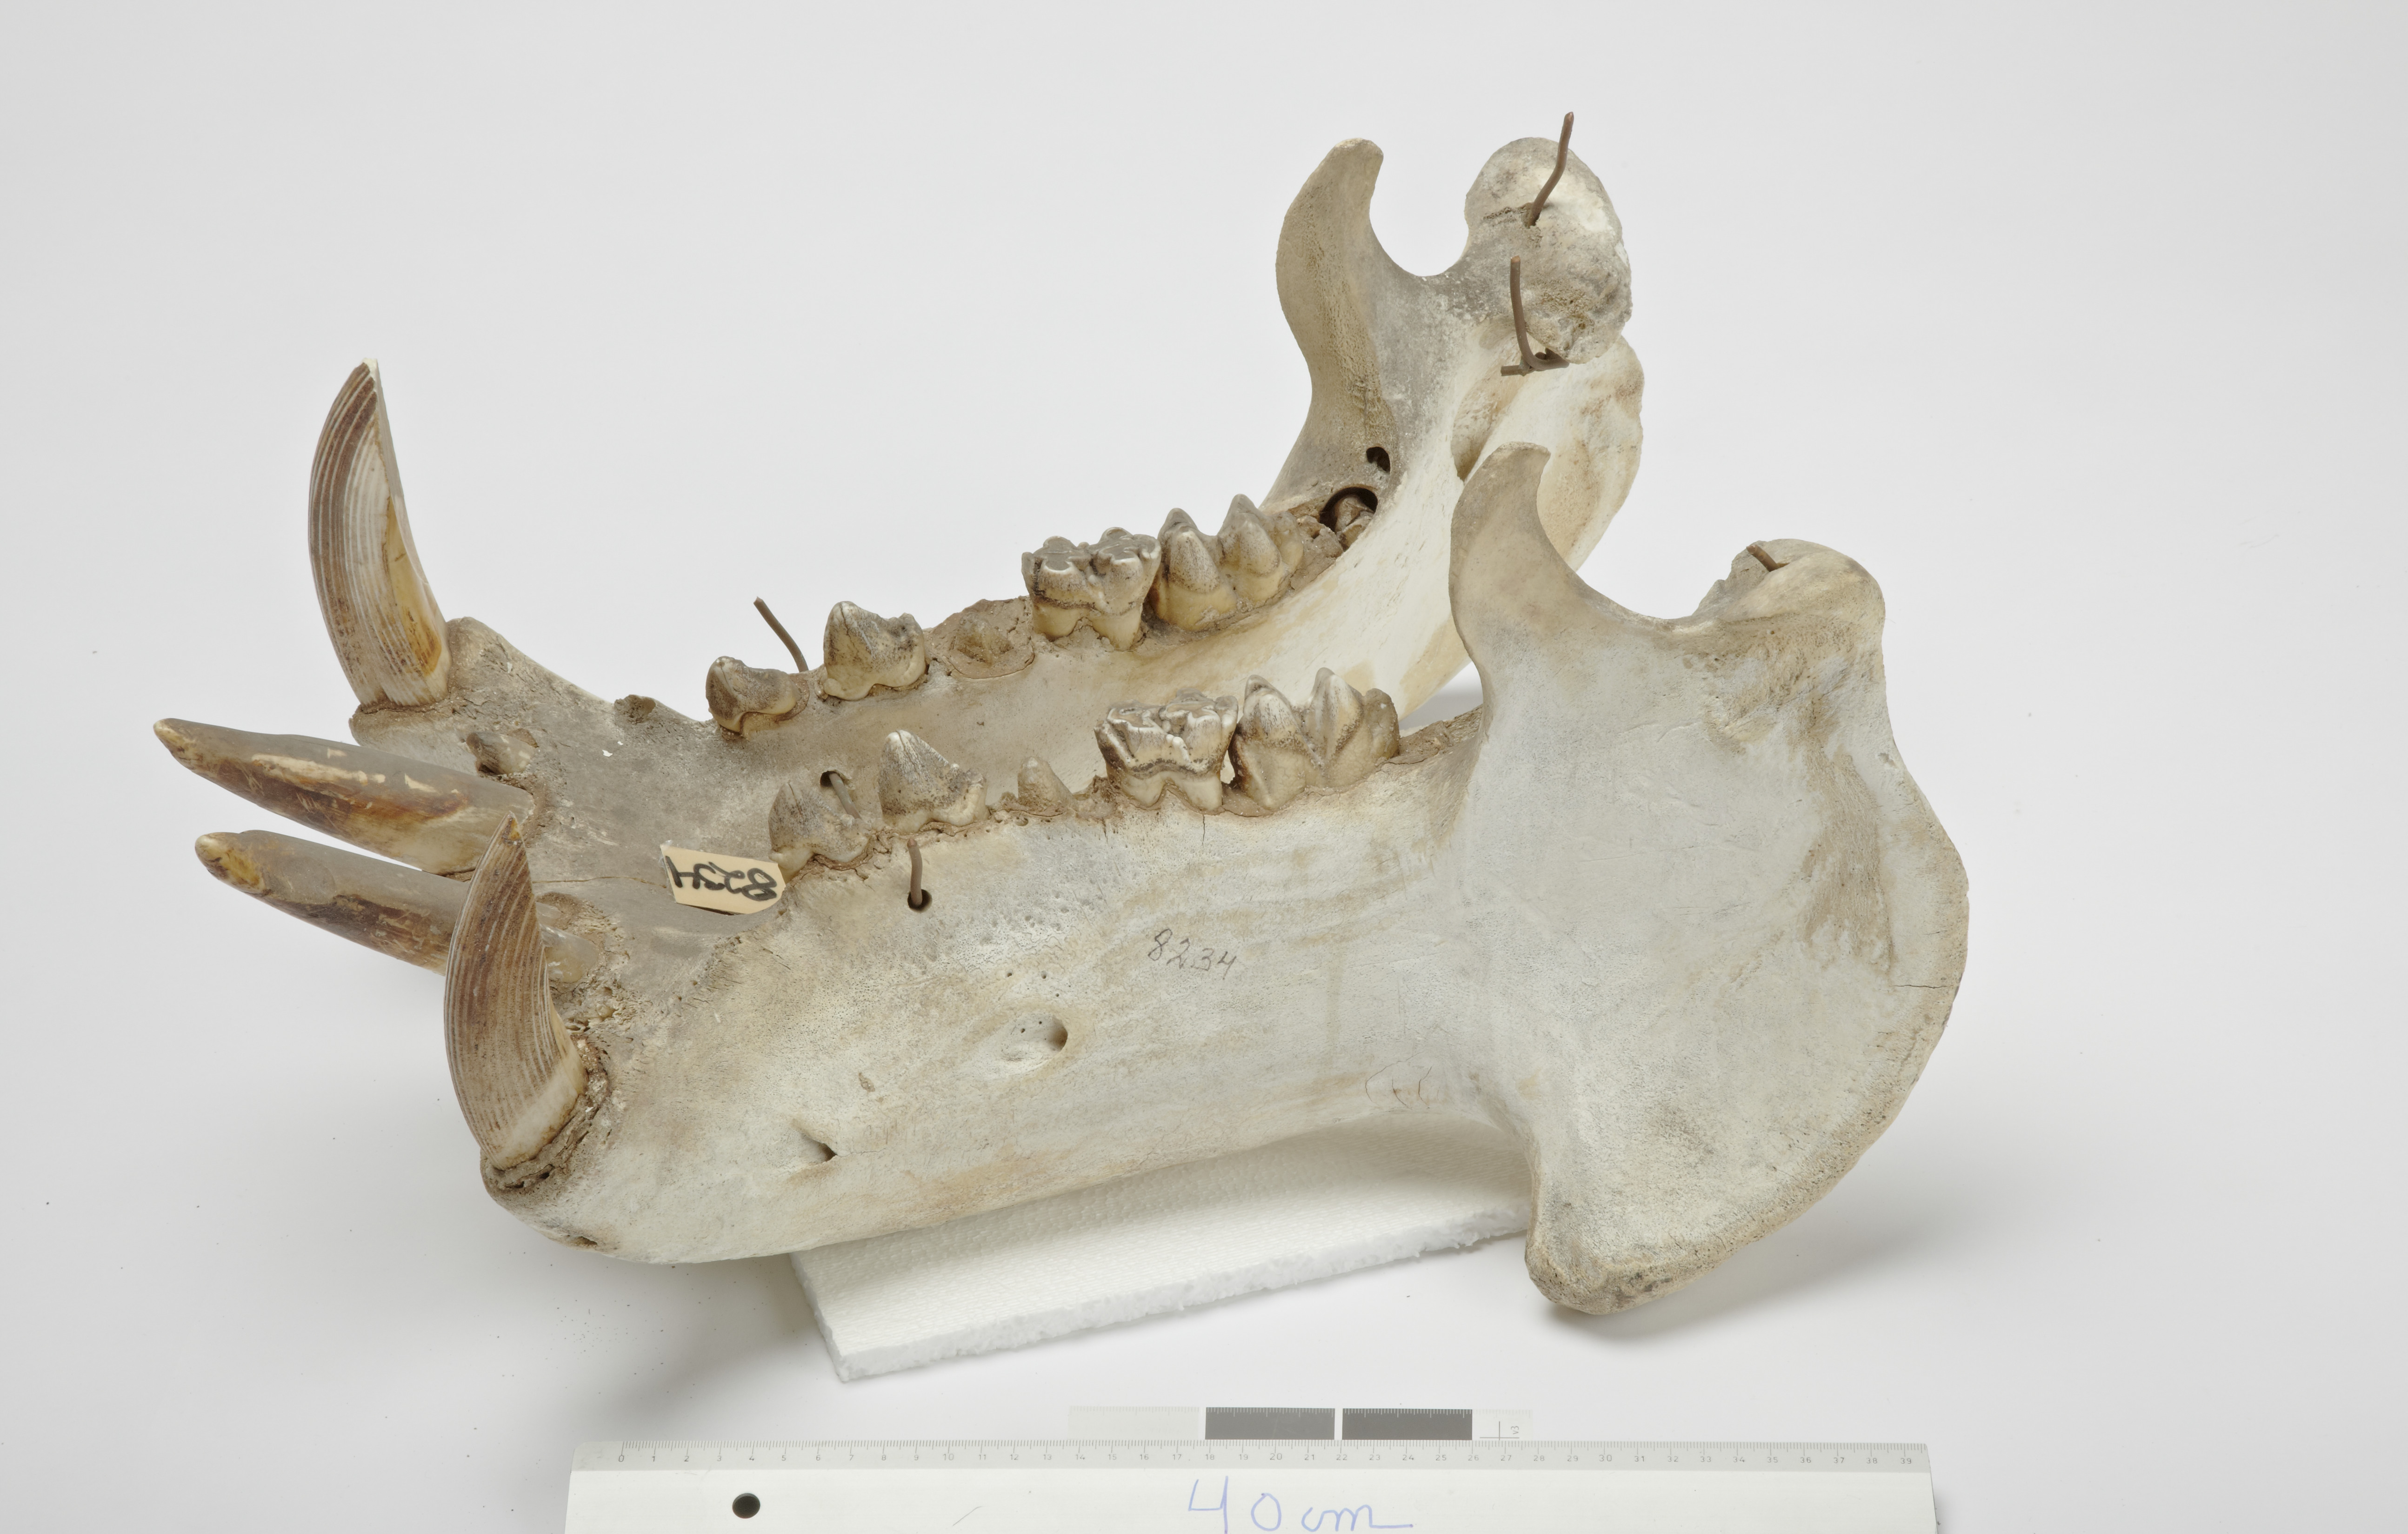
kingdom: Animalia
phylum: Chordata
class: Mammalia
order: Artiodactyla
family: Hippopotamidae
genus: Hippopotamus
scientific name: Hippopotamus amphibius
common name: Common hippopotamus
